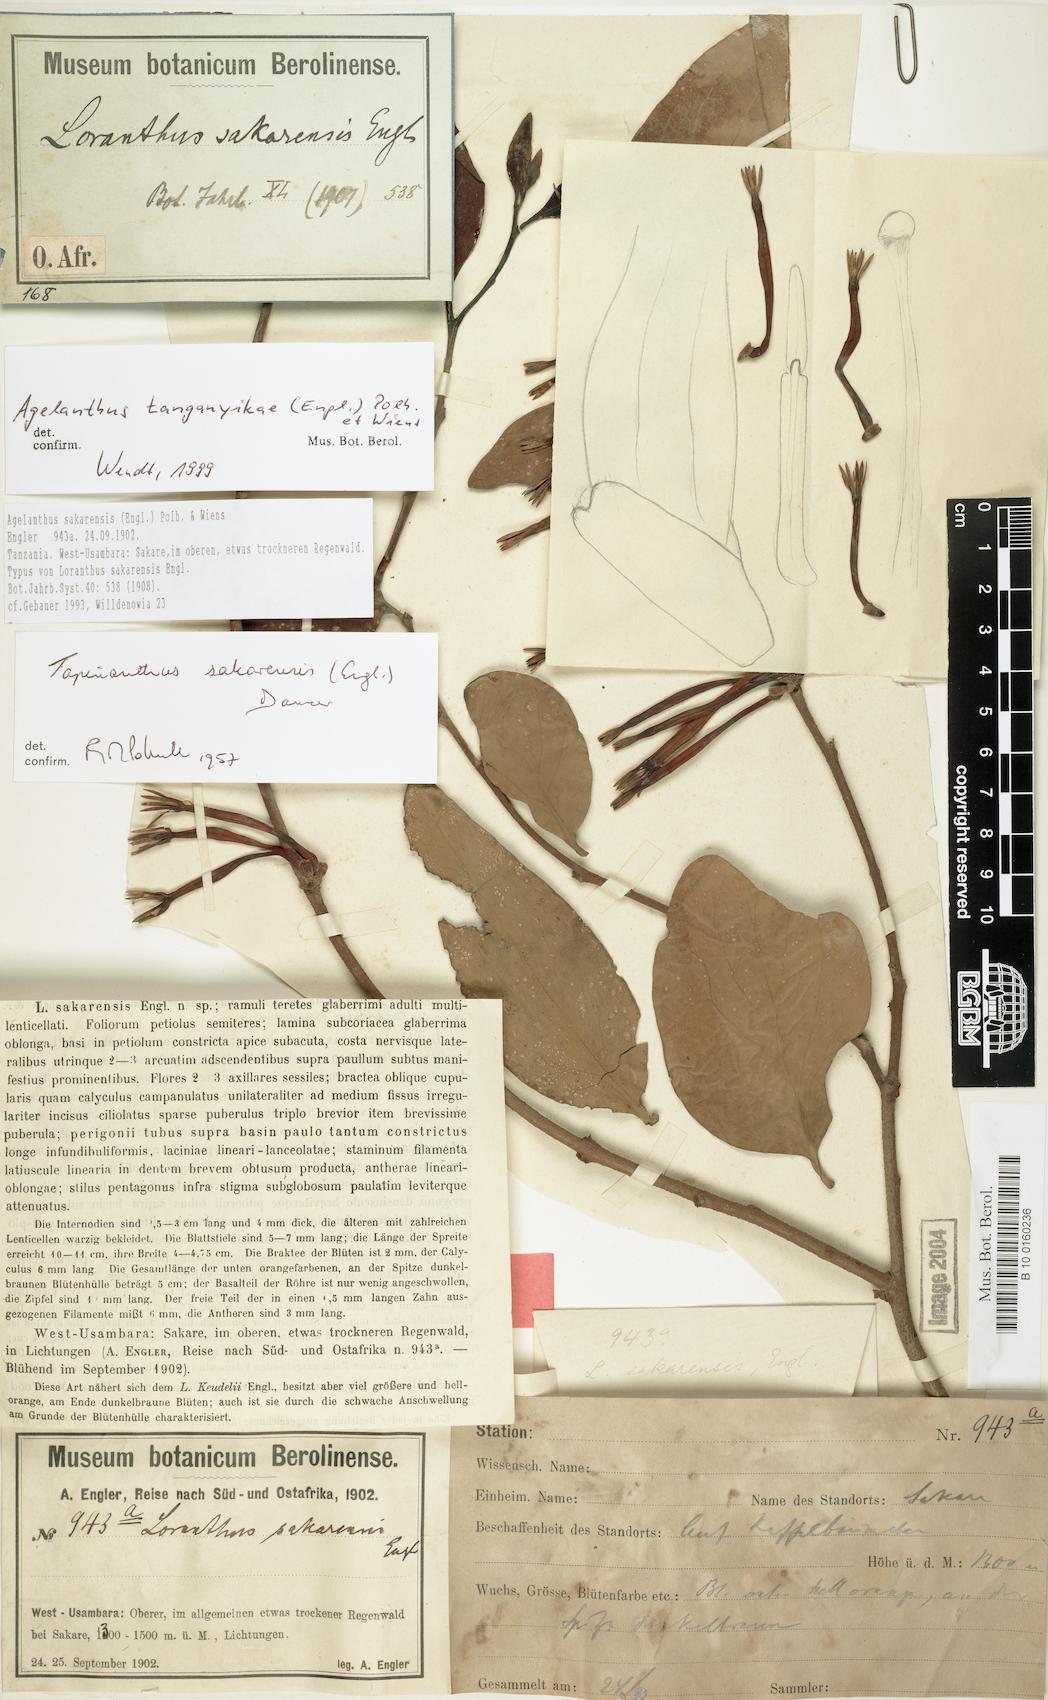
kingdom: Plantae
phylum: Tracheophyta
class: Magnoliopsida
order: Santalales
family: Loranthaceae
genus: Agelanthus
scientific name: Agelanthus tanganyikae
